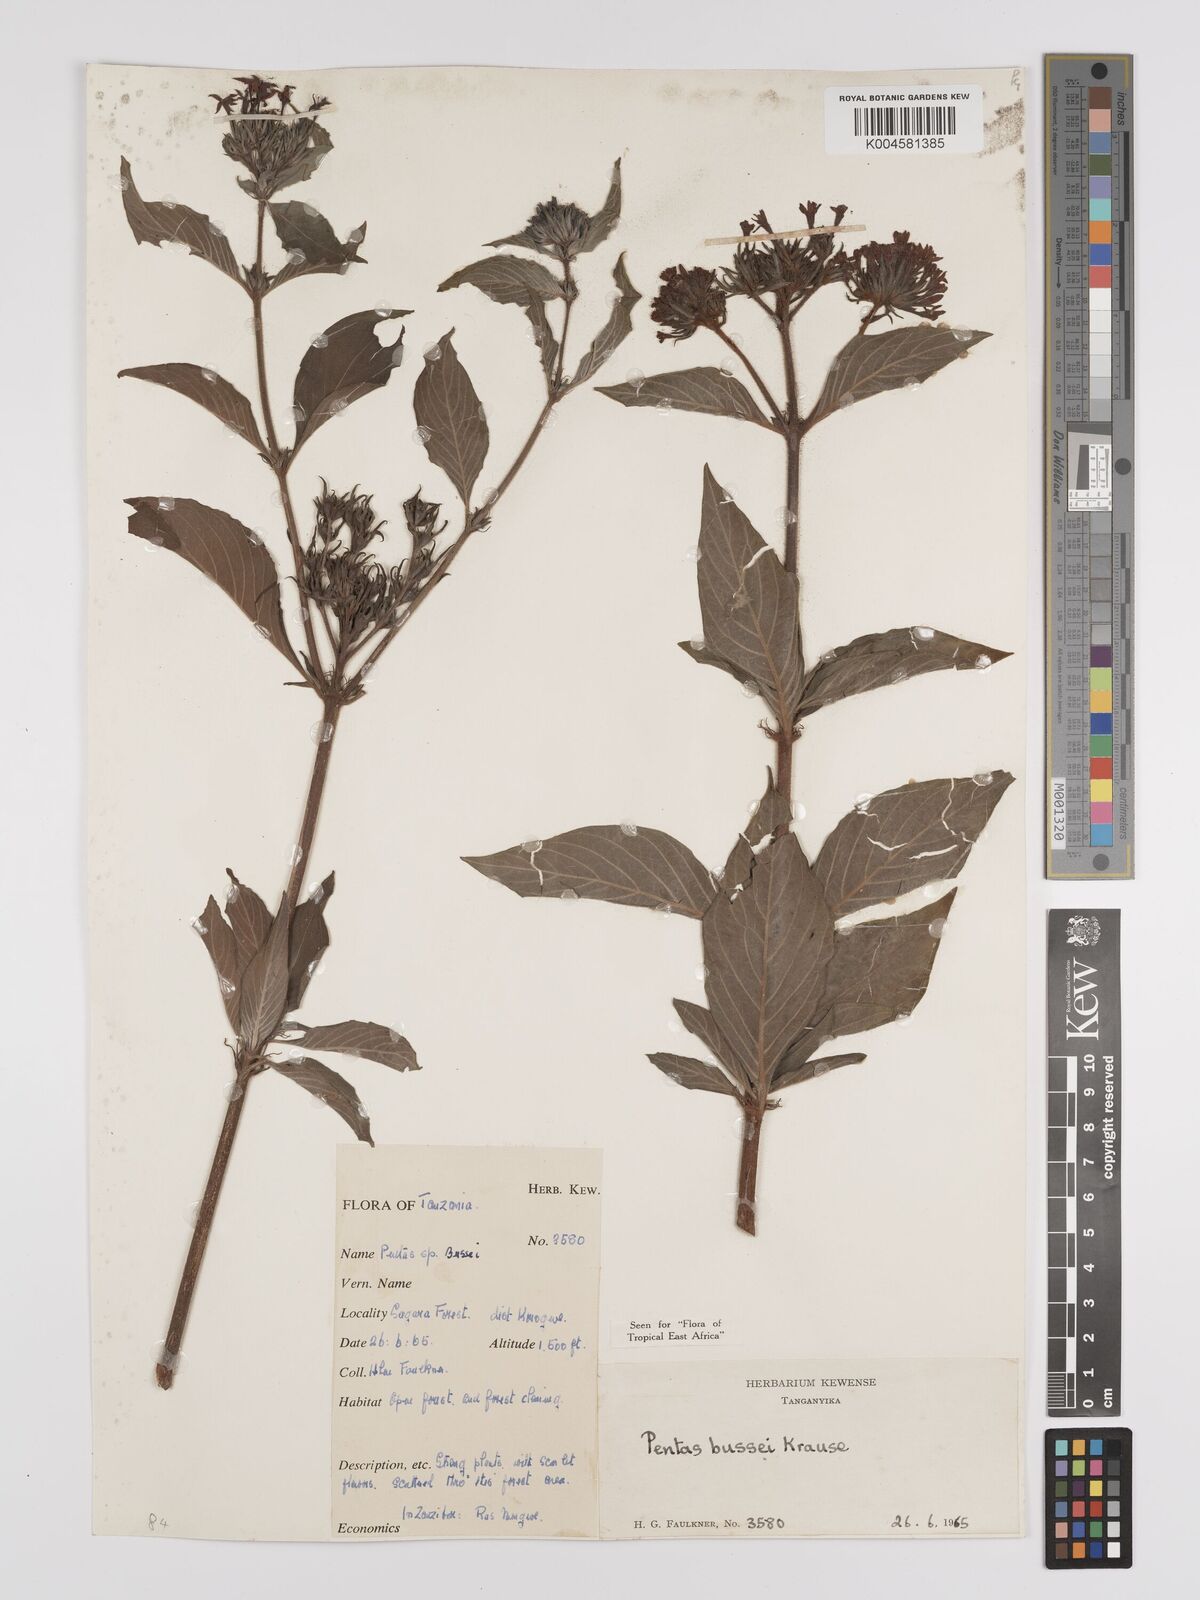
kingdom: Plantae
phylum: Tracheophyta
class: Magnoliopsida
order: Gentianales
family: Rubiaceae
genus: Rhodopentas
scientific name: Rhodopentas bussei
